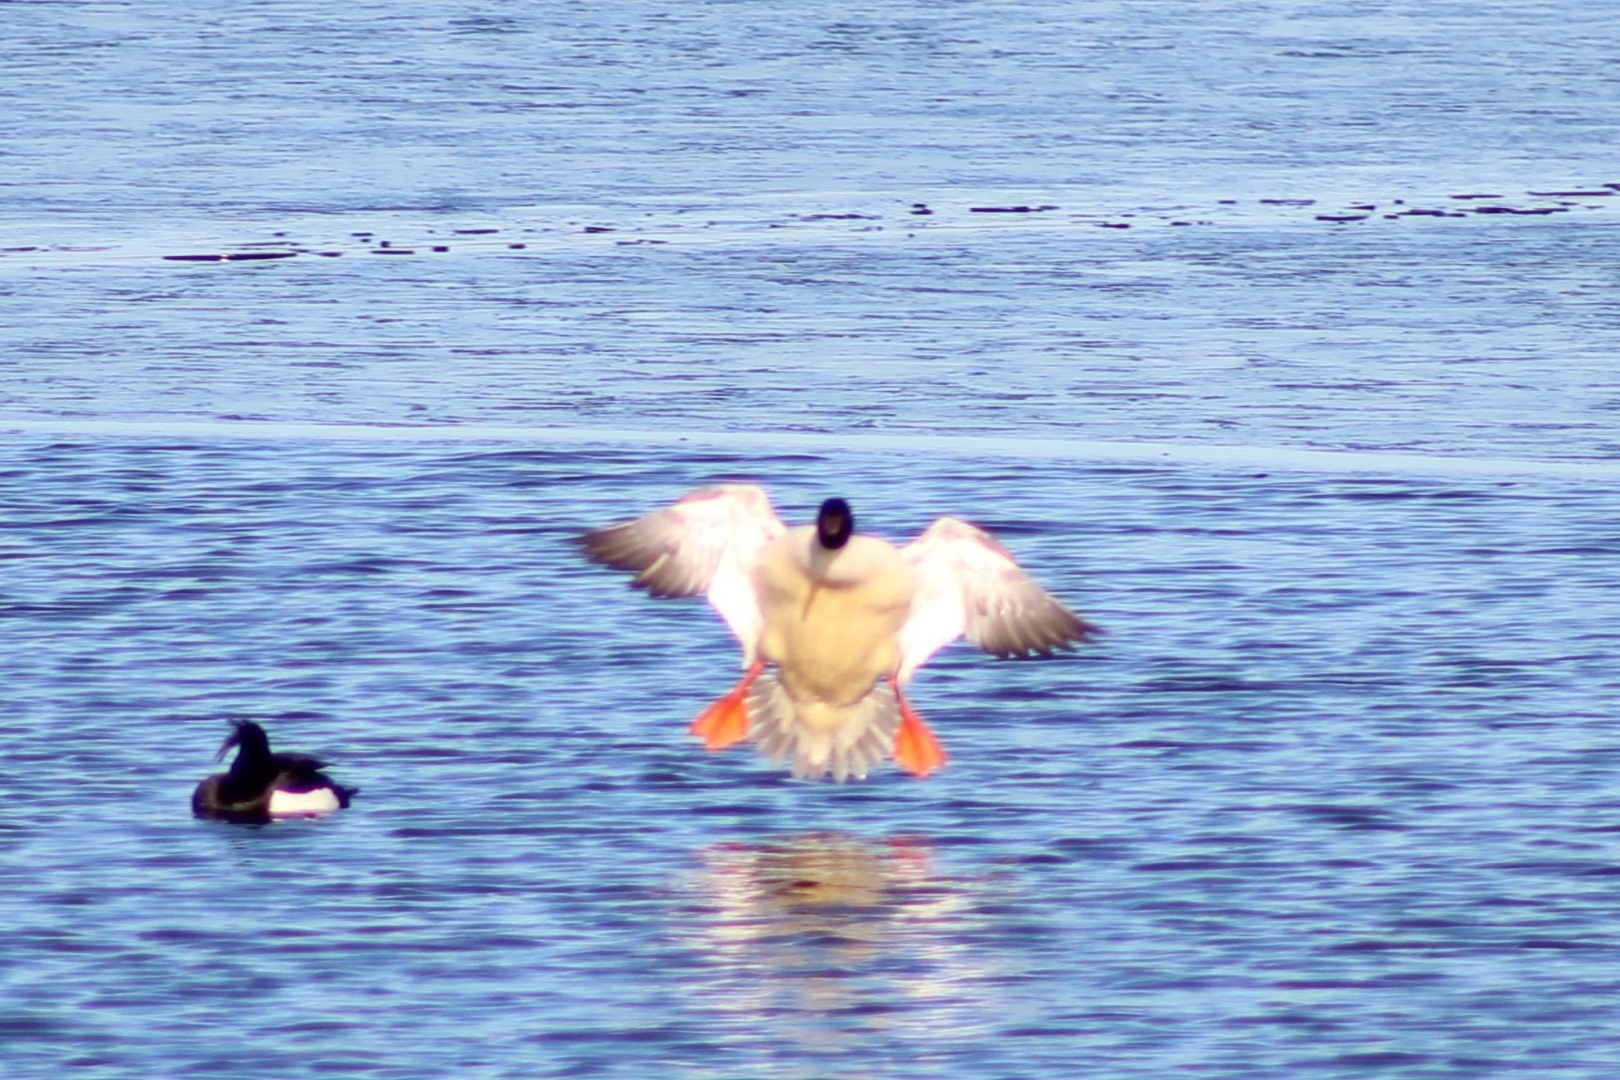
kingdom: Animalia
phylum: Chordata
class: Aves
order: Anseriformes
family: Anatidae
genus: Mergus
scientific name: Mergus merganser
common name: Stor skallesluger
